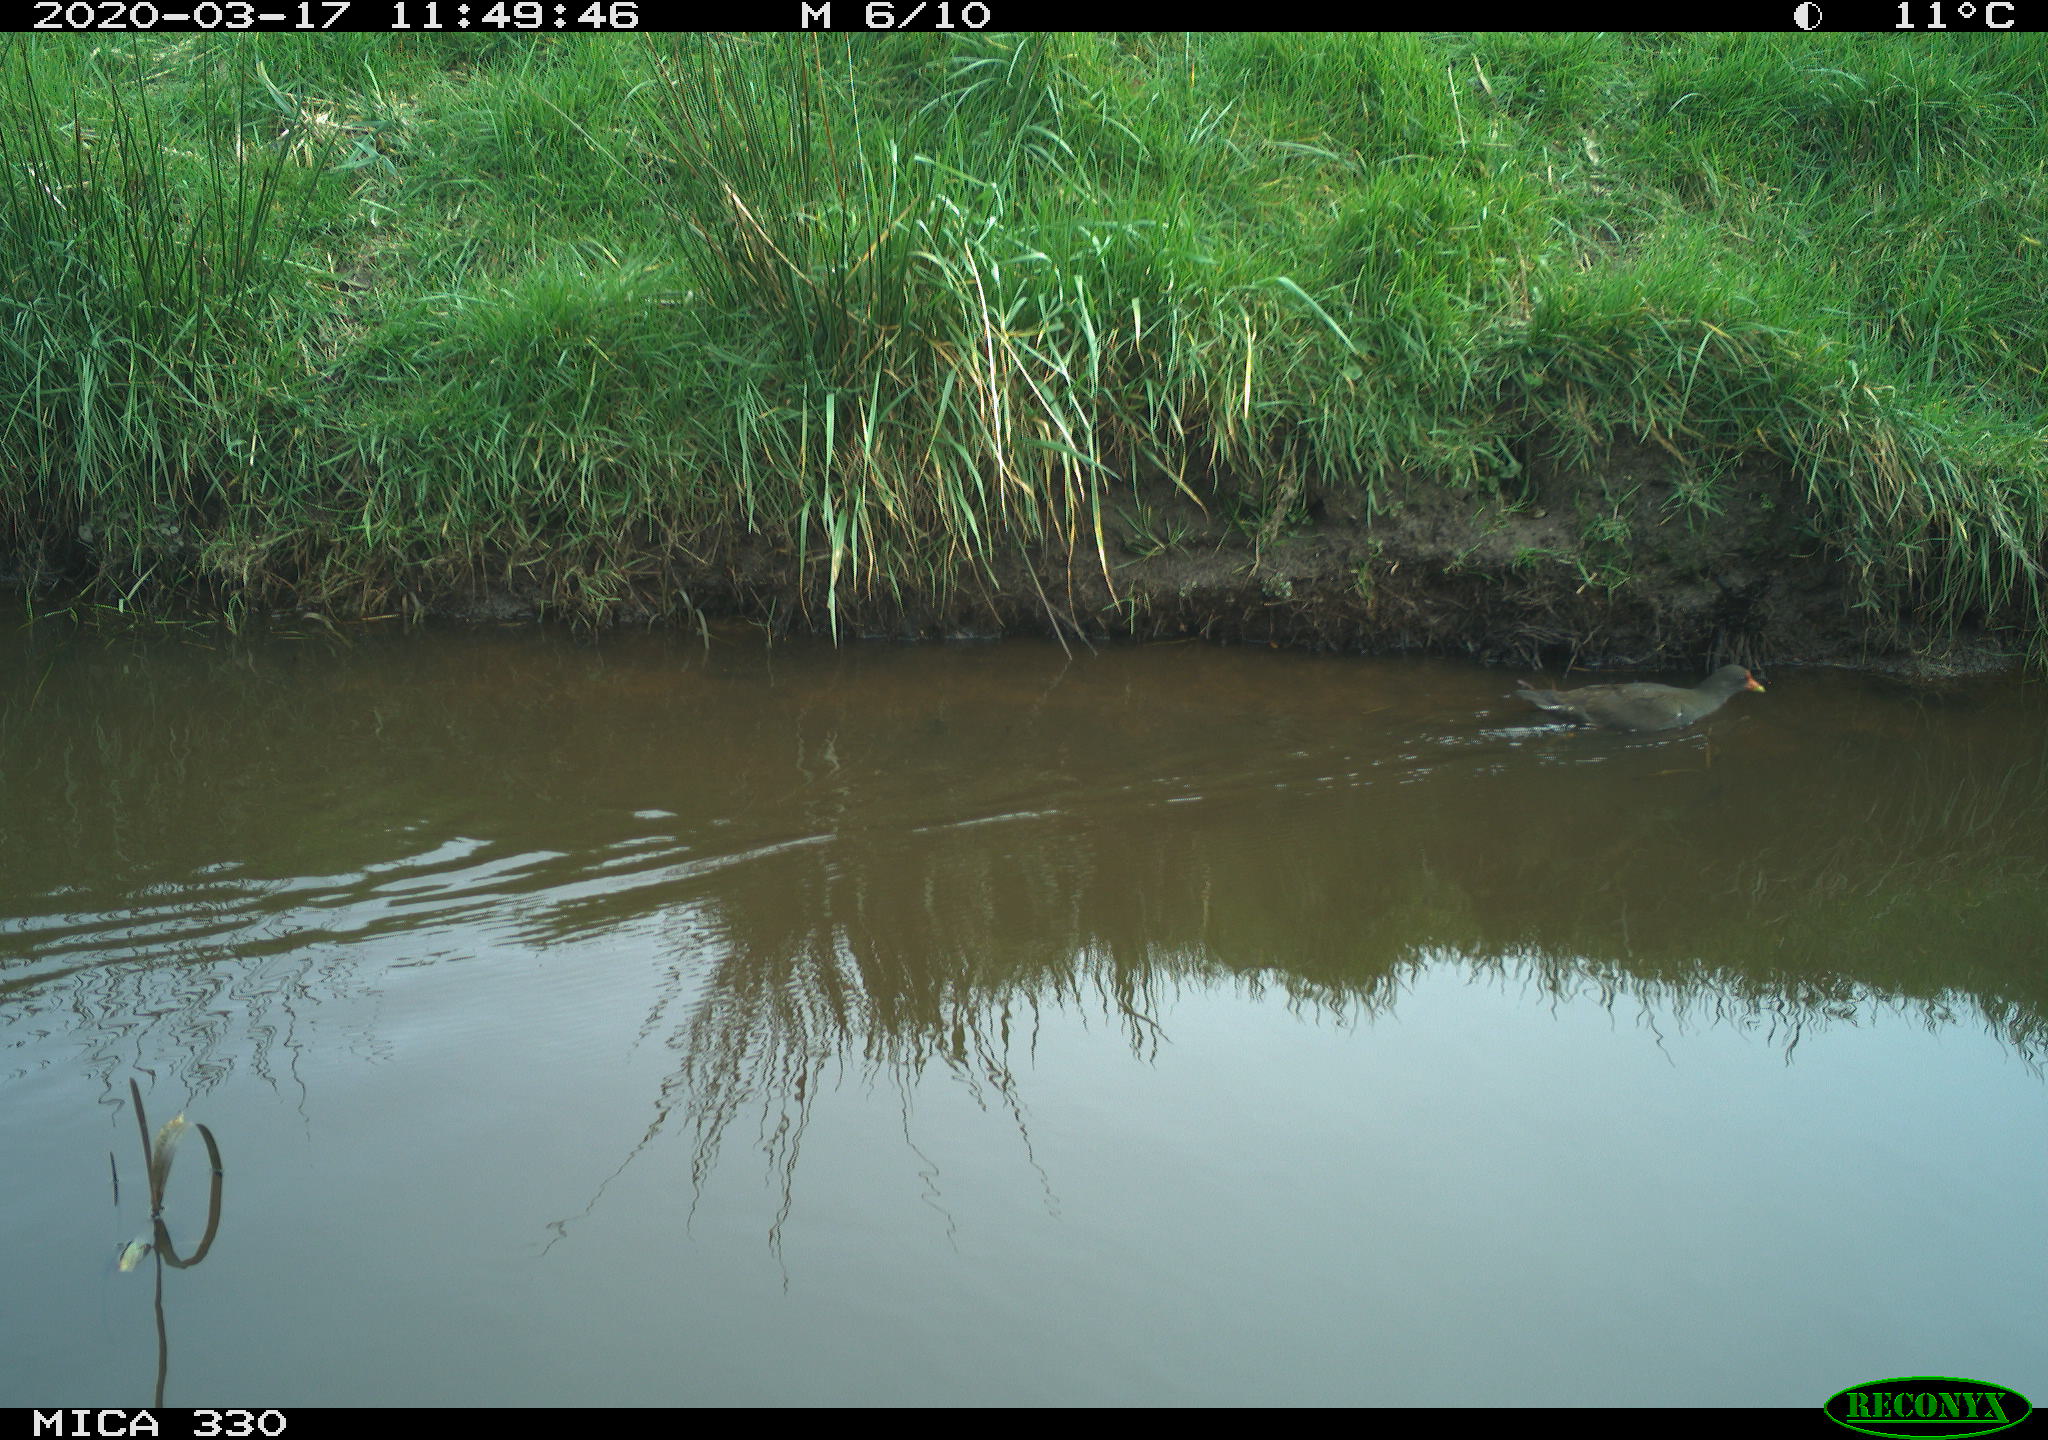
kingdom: Animalia
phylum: Chordata
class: Aves
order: Gruiformes
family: Rallidae
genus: Gallinula
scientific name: Gallinula chloropus
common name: Common moorhen
